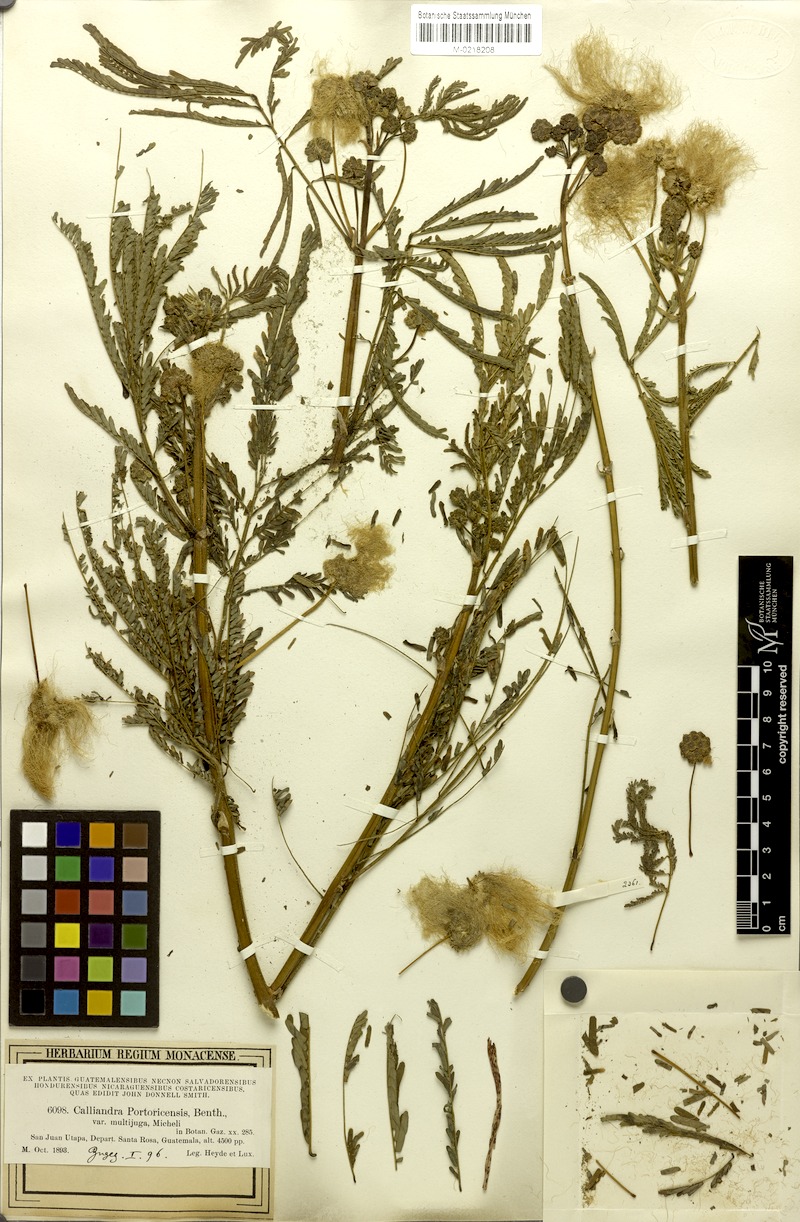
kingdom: Plantae
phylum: Tracheophyta
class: Magnoliopsida
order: Fabales
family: Fabaceae
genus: Zapoteca
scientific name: Zapoteca tetragona
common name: White calliandra
